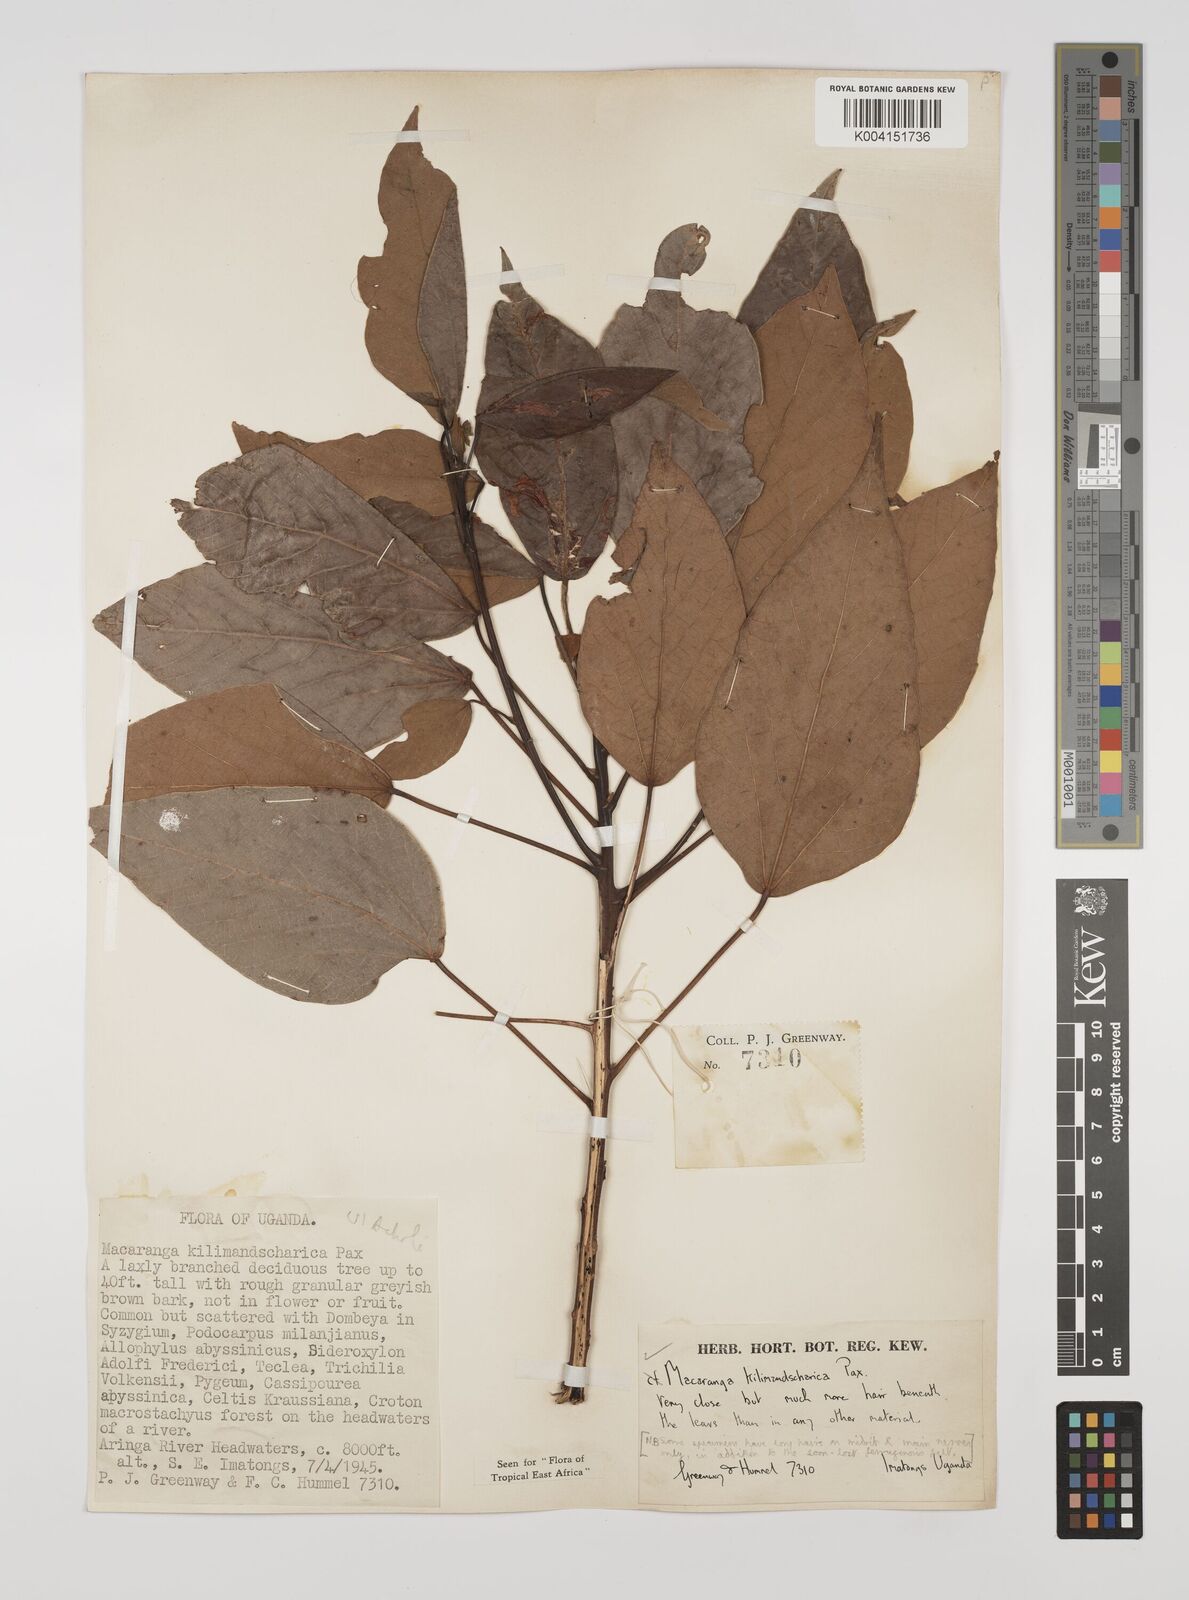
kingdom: Plantae
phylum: Tracheophyta
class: Magnoliopsida
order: Malpighiales
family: Euphorbiaceae
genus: Macaranga
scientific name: Macaranga
